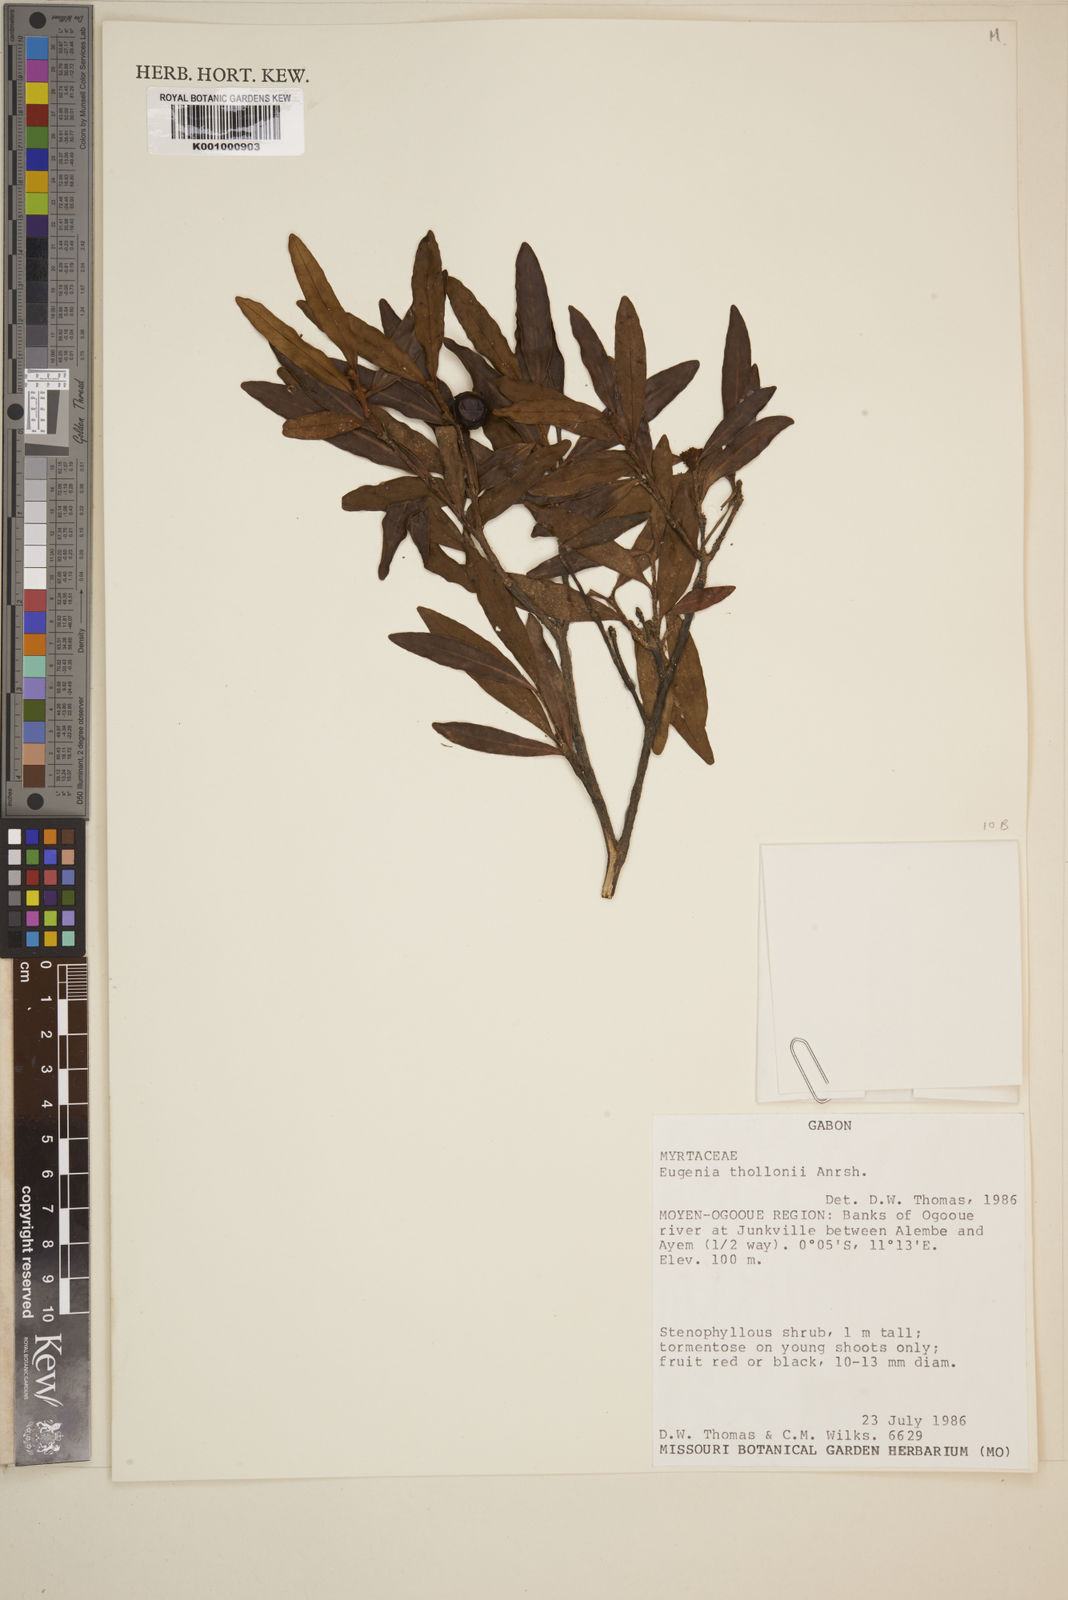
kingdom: Plantae
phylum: Tracheophyta
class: Magnoliopsida
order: Myrtales
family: Myrtaceae
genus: Eugenia
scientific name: Eugenia thollonii
